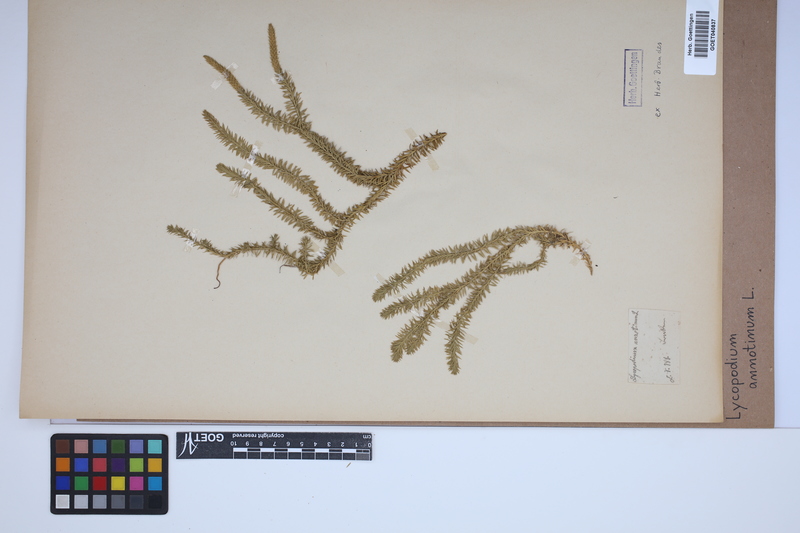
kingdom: Plantae
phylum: Tracheophyta
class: Lycopodiopsida
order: Lycopodiales
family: Lycopodiaceae
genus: Spinulum
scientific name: Spinulum annotinum
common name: Interrupted club-moss
